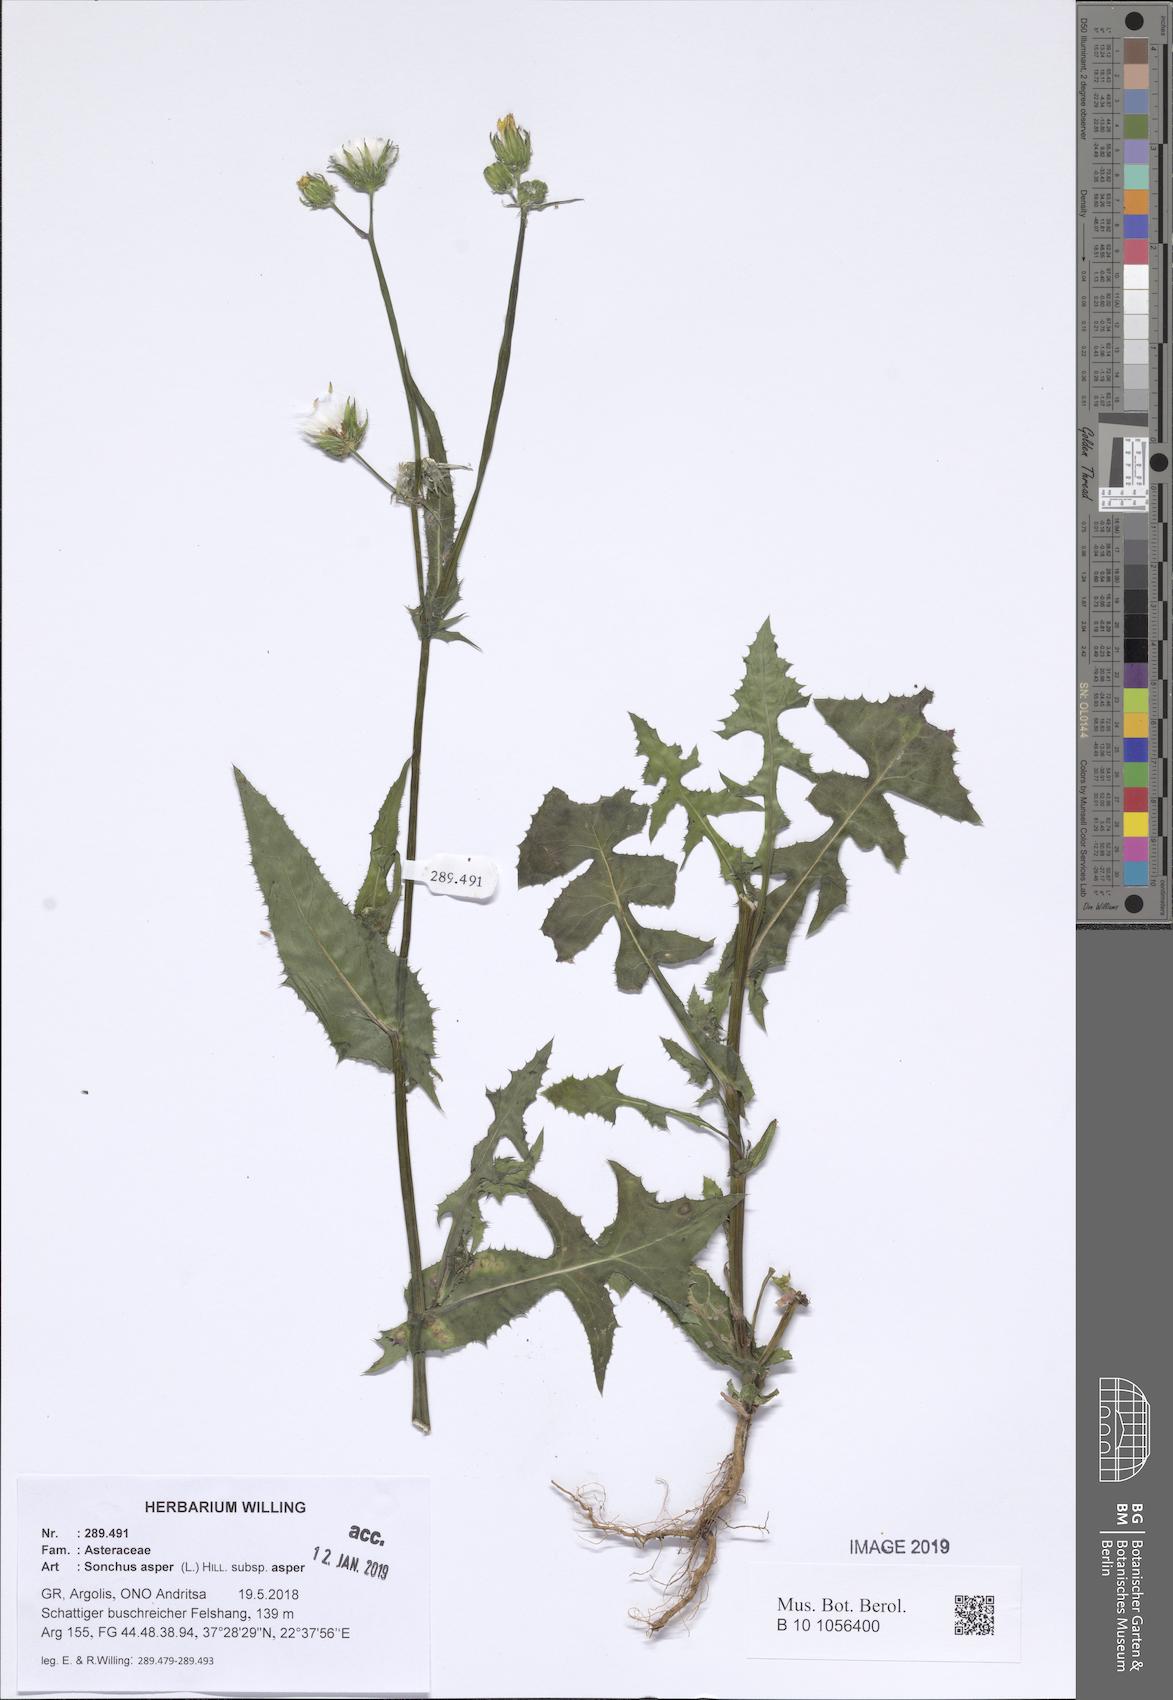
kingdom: Plantae
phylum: Tracheophyta
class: Magnoliopsida
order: Asterales
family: Asteraceae
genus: Sonchus
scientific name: Sonchus asper
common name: Prickly sow-thistle
